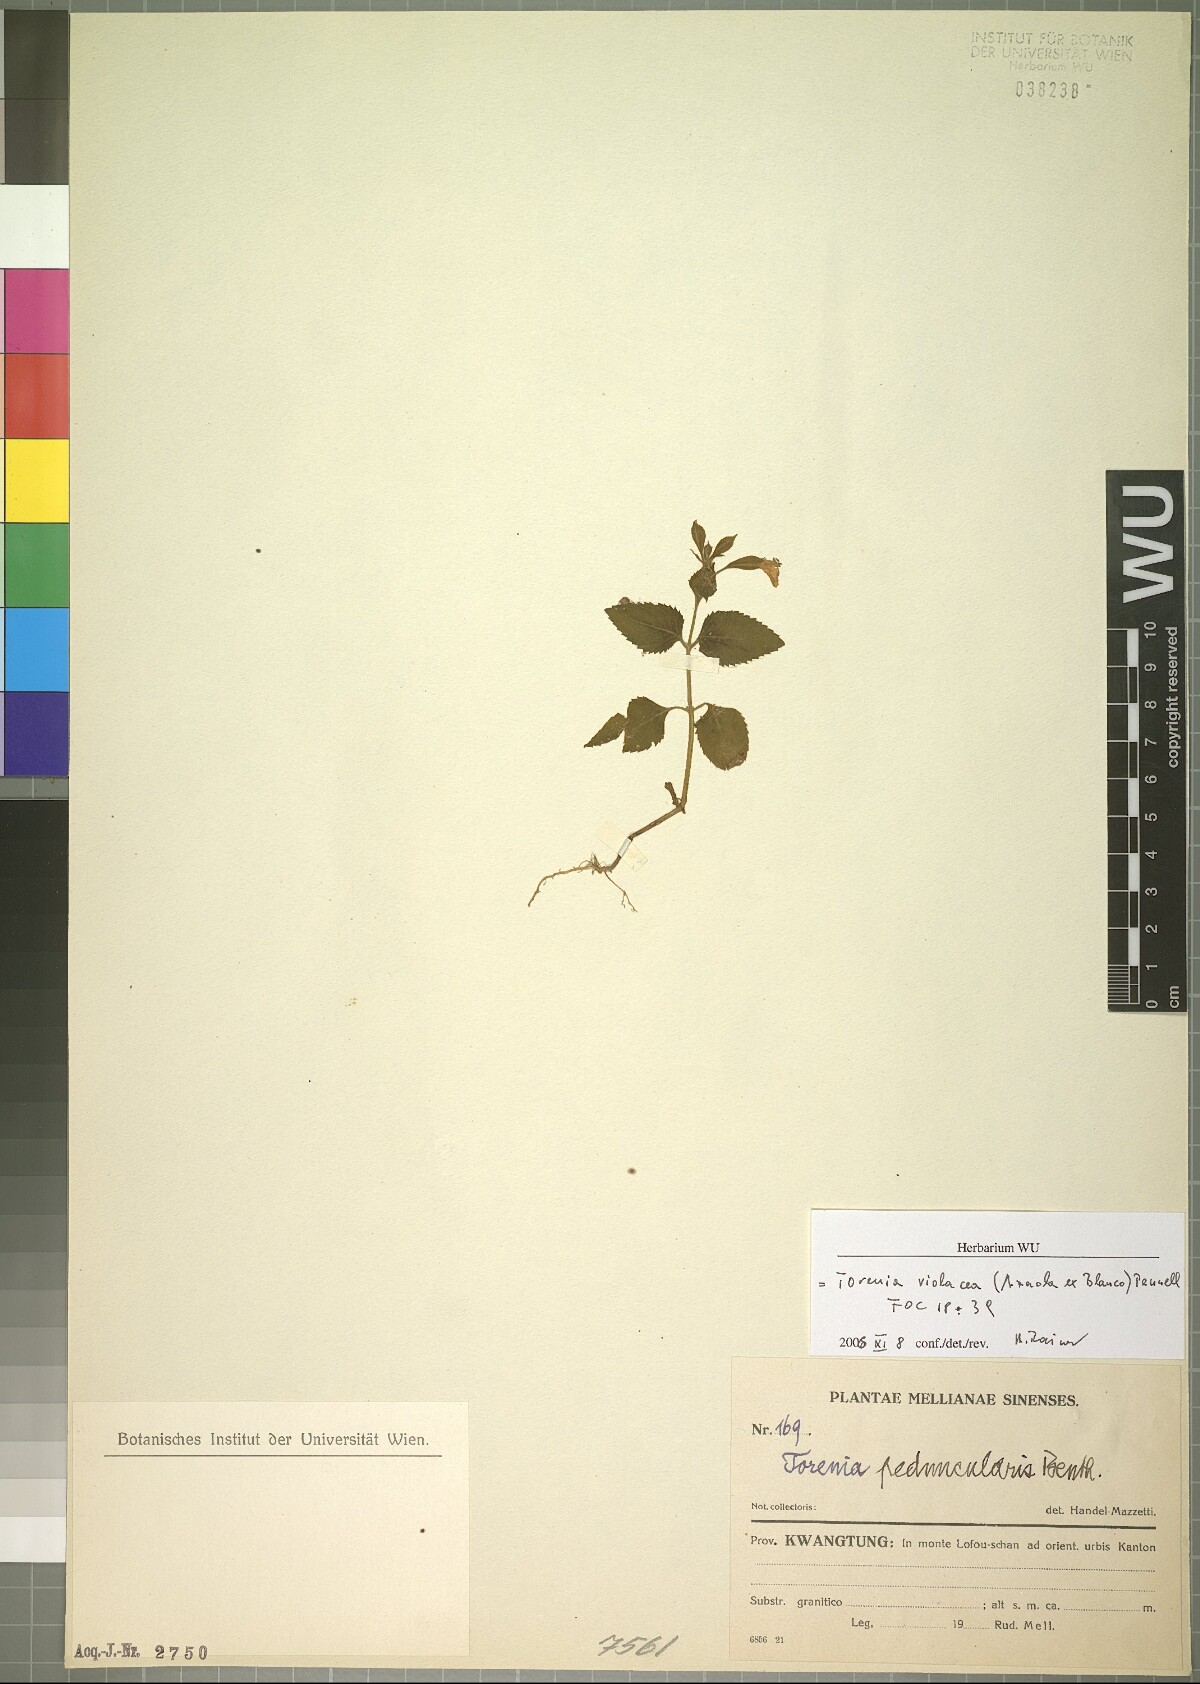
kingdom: Plantae
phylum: Tracheophyta
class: Magnoliopsida
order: Lamiales
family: Linderniaceae
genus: Torenia
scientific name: Torenia violacea
